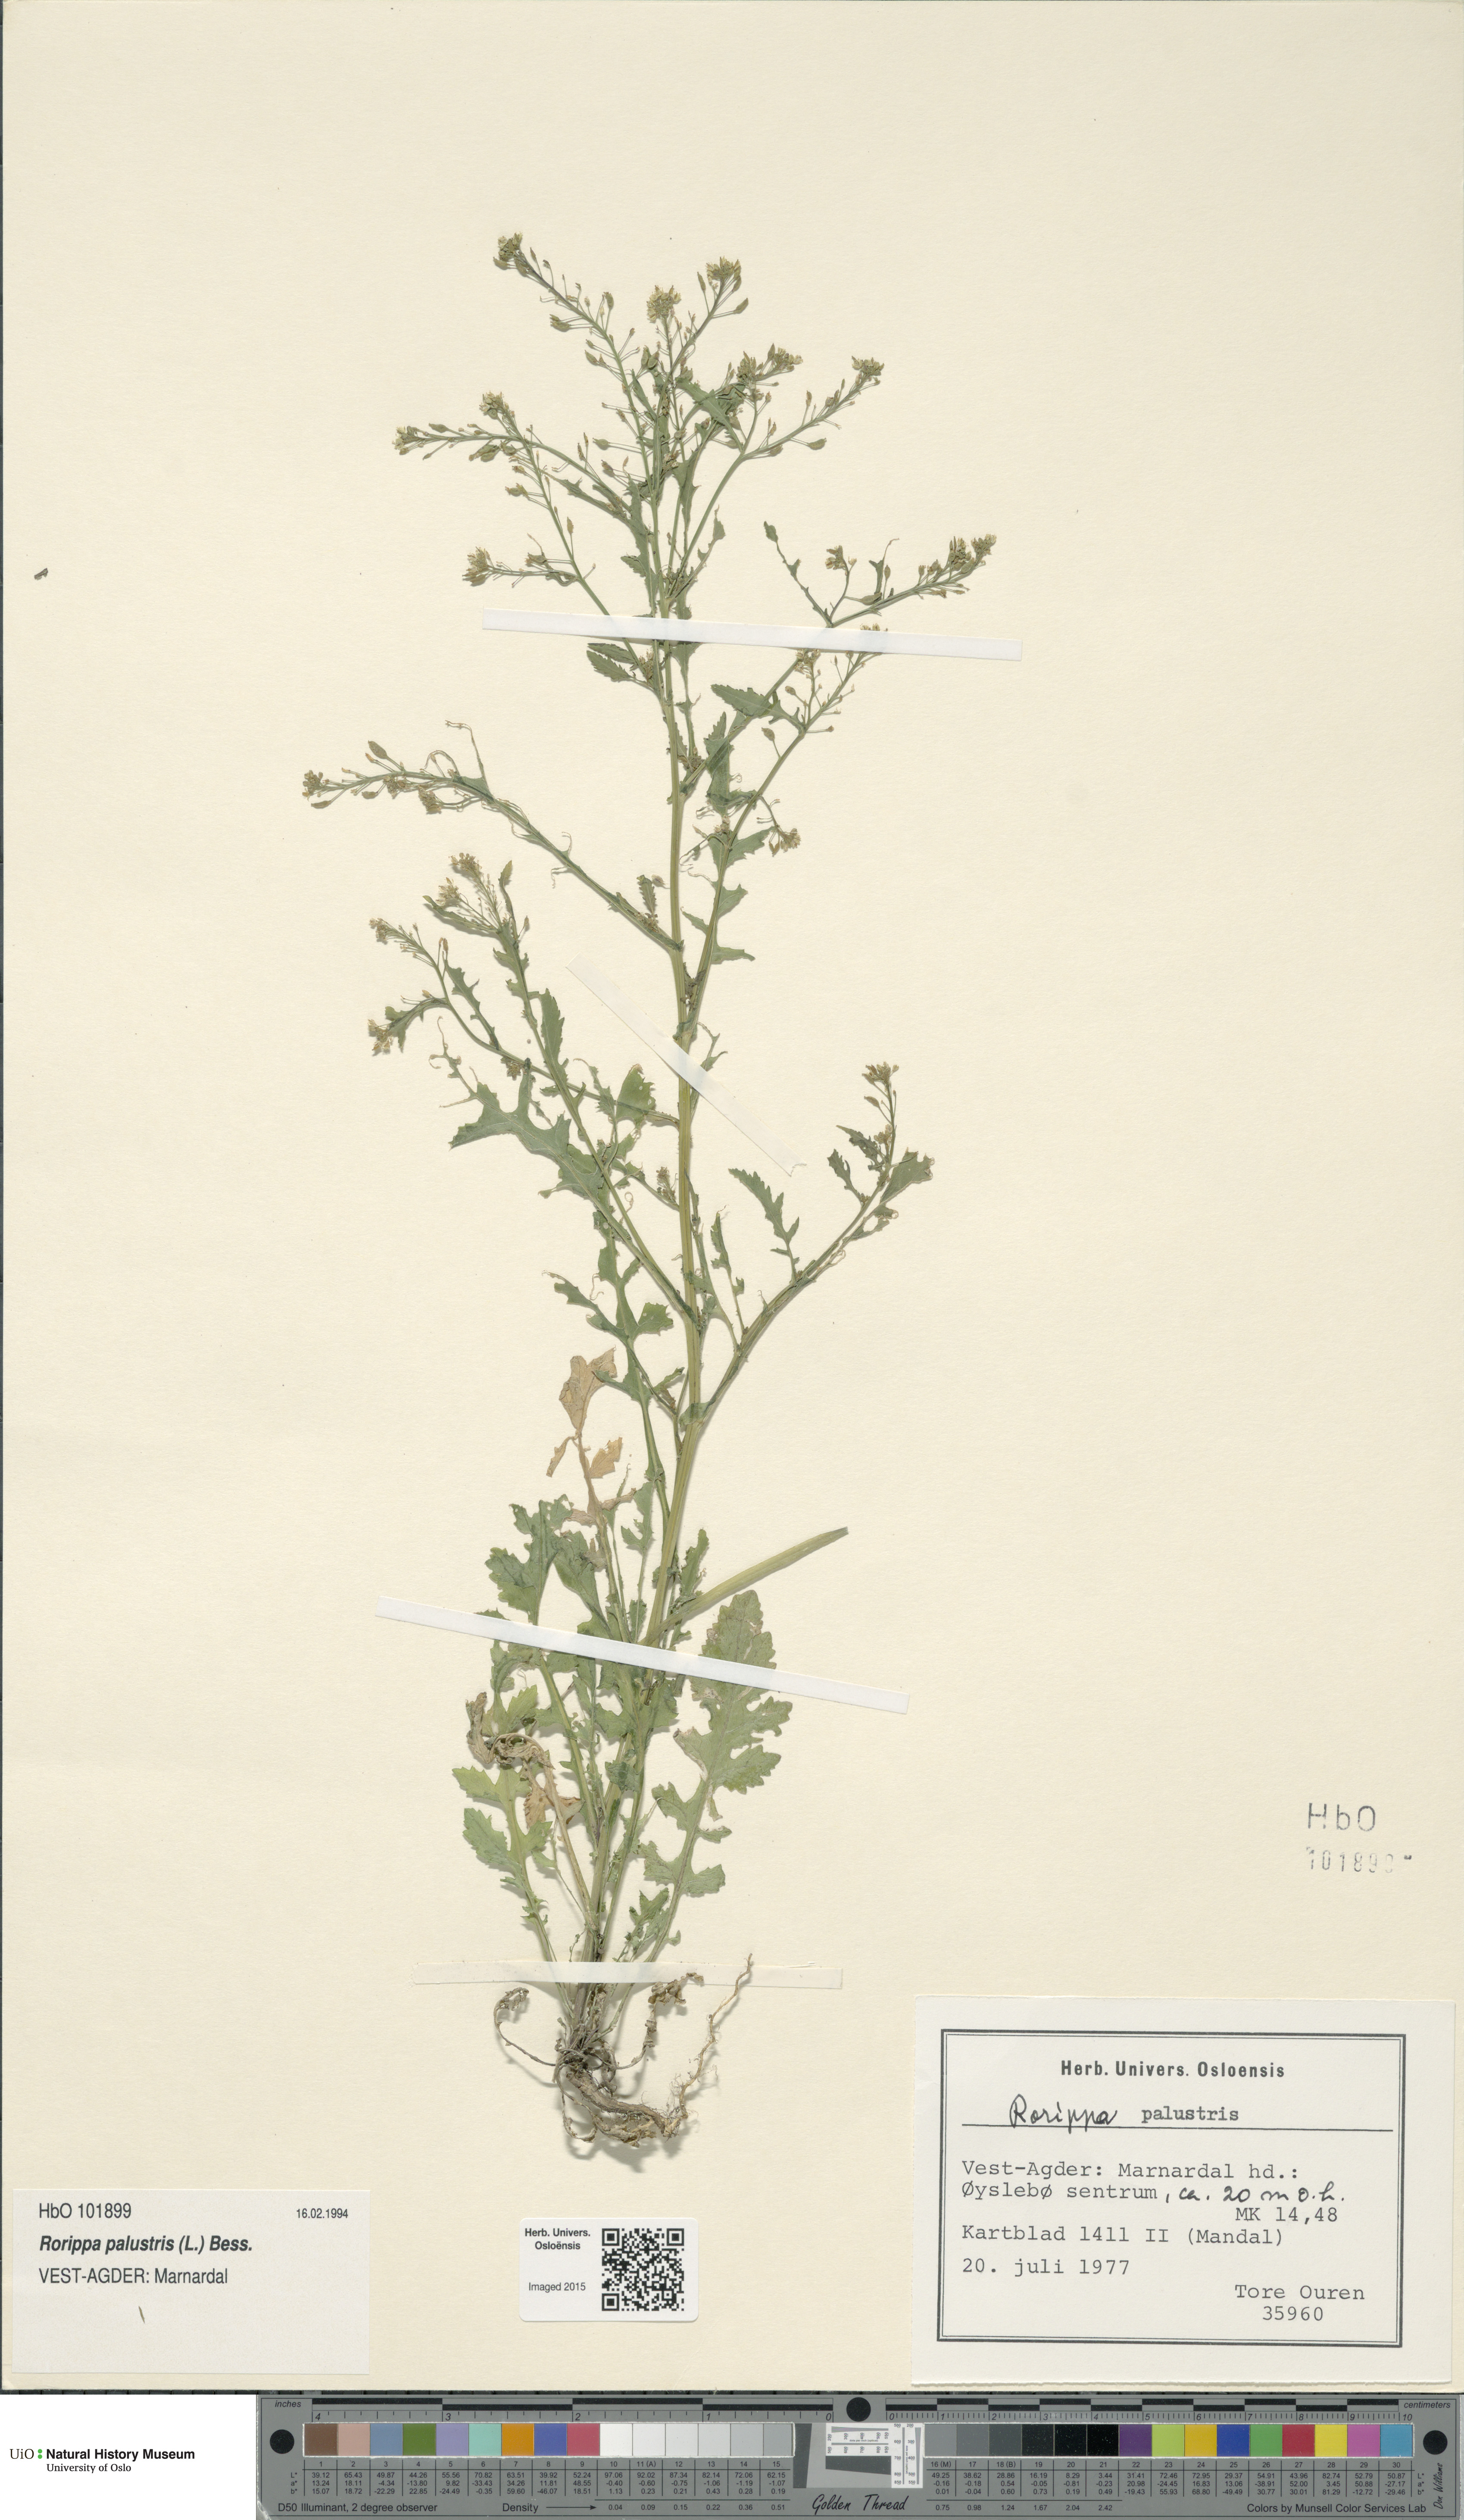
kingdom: Plantae
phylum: Tracheophyta
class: Magnoliopsida
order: Brassicales
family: Brassicaceae
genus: Rorippa
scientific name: Rorippa palustris
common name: Marsh yellow-cress
